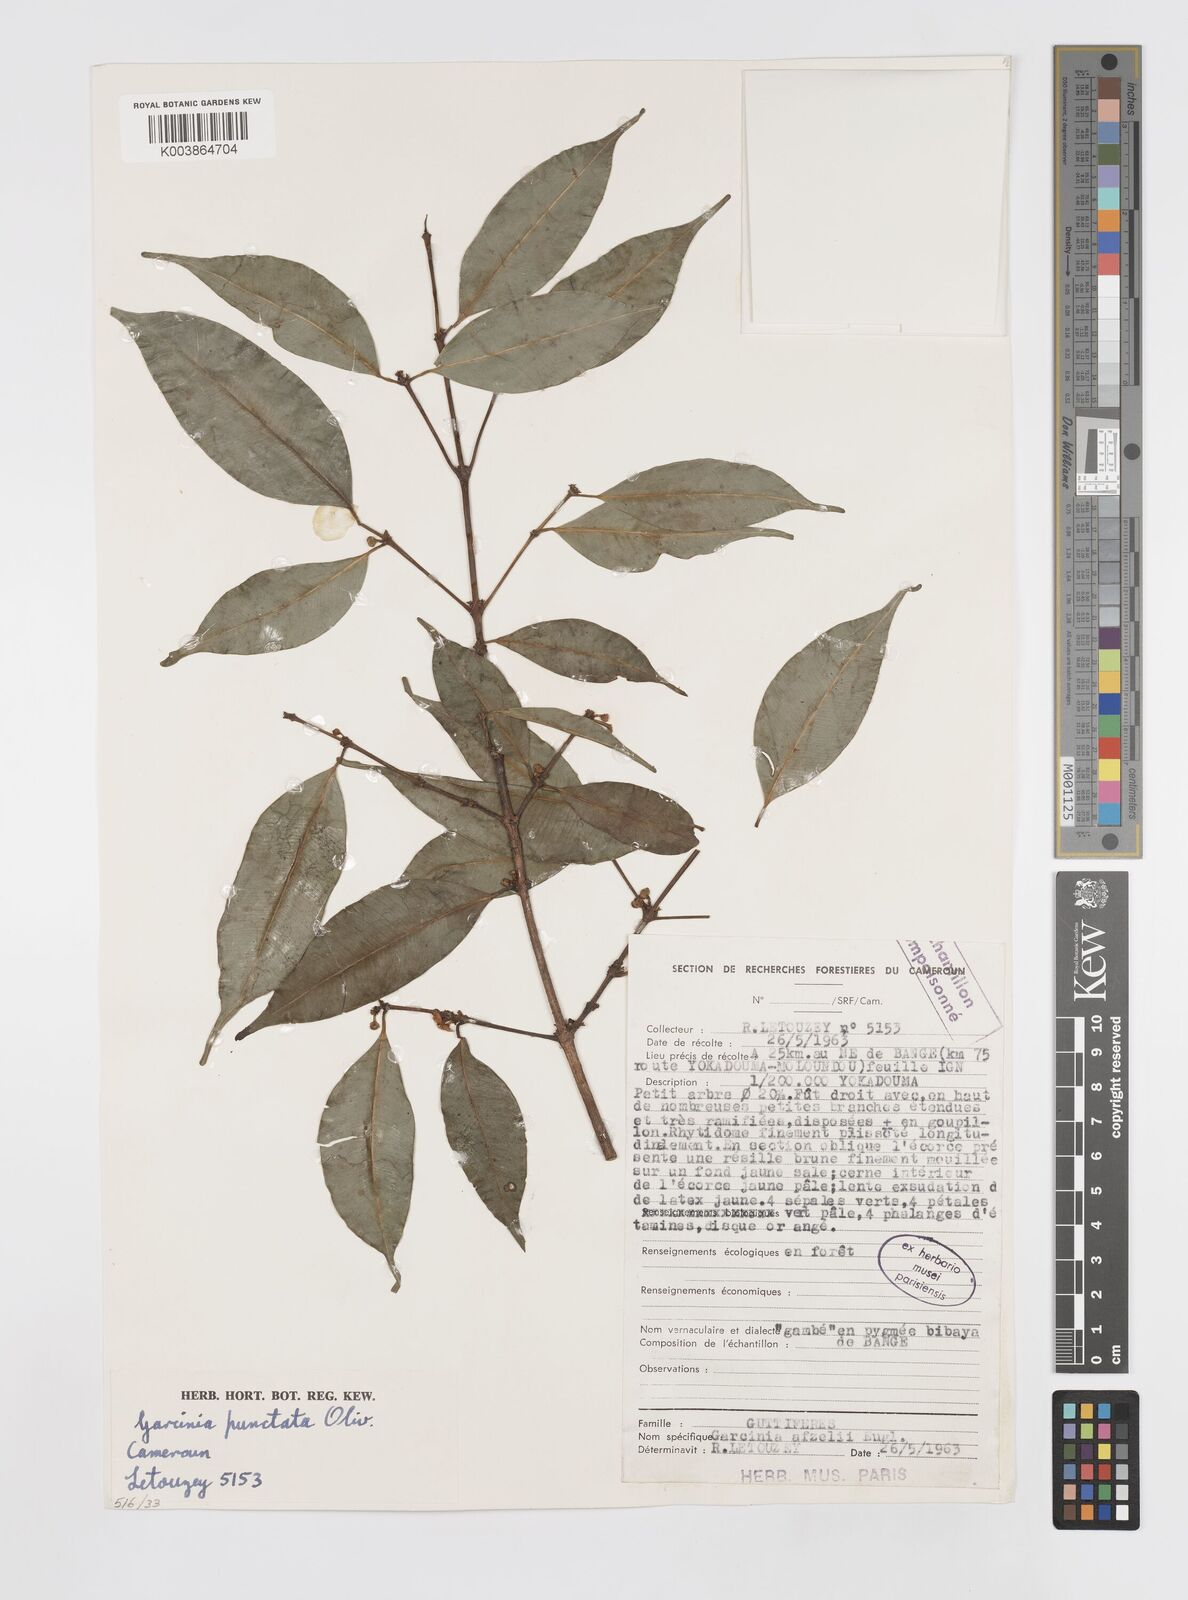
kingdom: Plantae
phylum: Tracheophyta
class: Magnoliopsida
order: Malpighiales
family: Clusiaceae
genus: Garcinia
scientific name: Garcinia punctata
